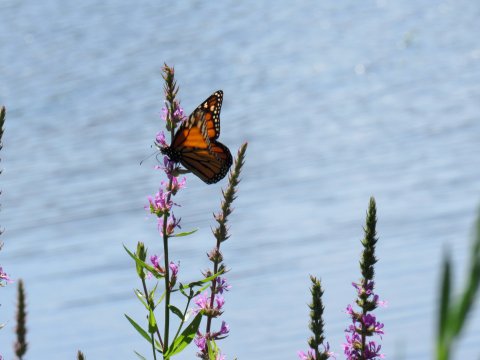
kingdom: Animalia
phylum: Arthropoda
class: Insecta
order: Lepidoptera
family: Nymphalidae
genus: Danaus
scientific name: Danaus plexippus
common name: Monarch
